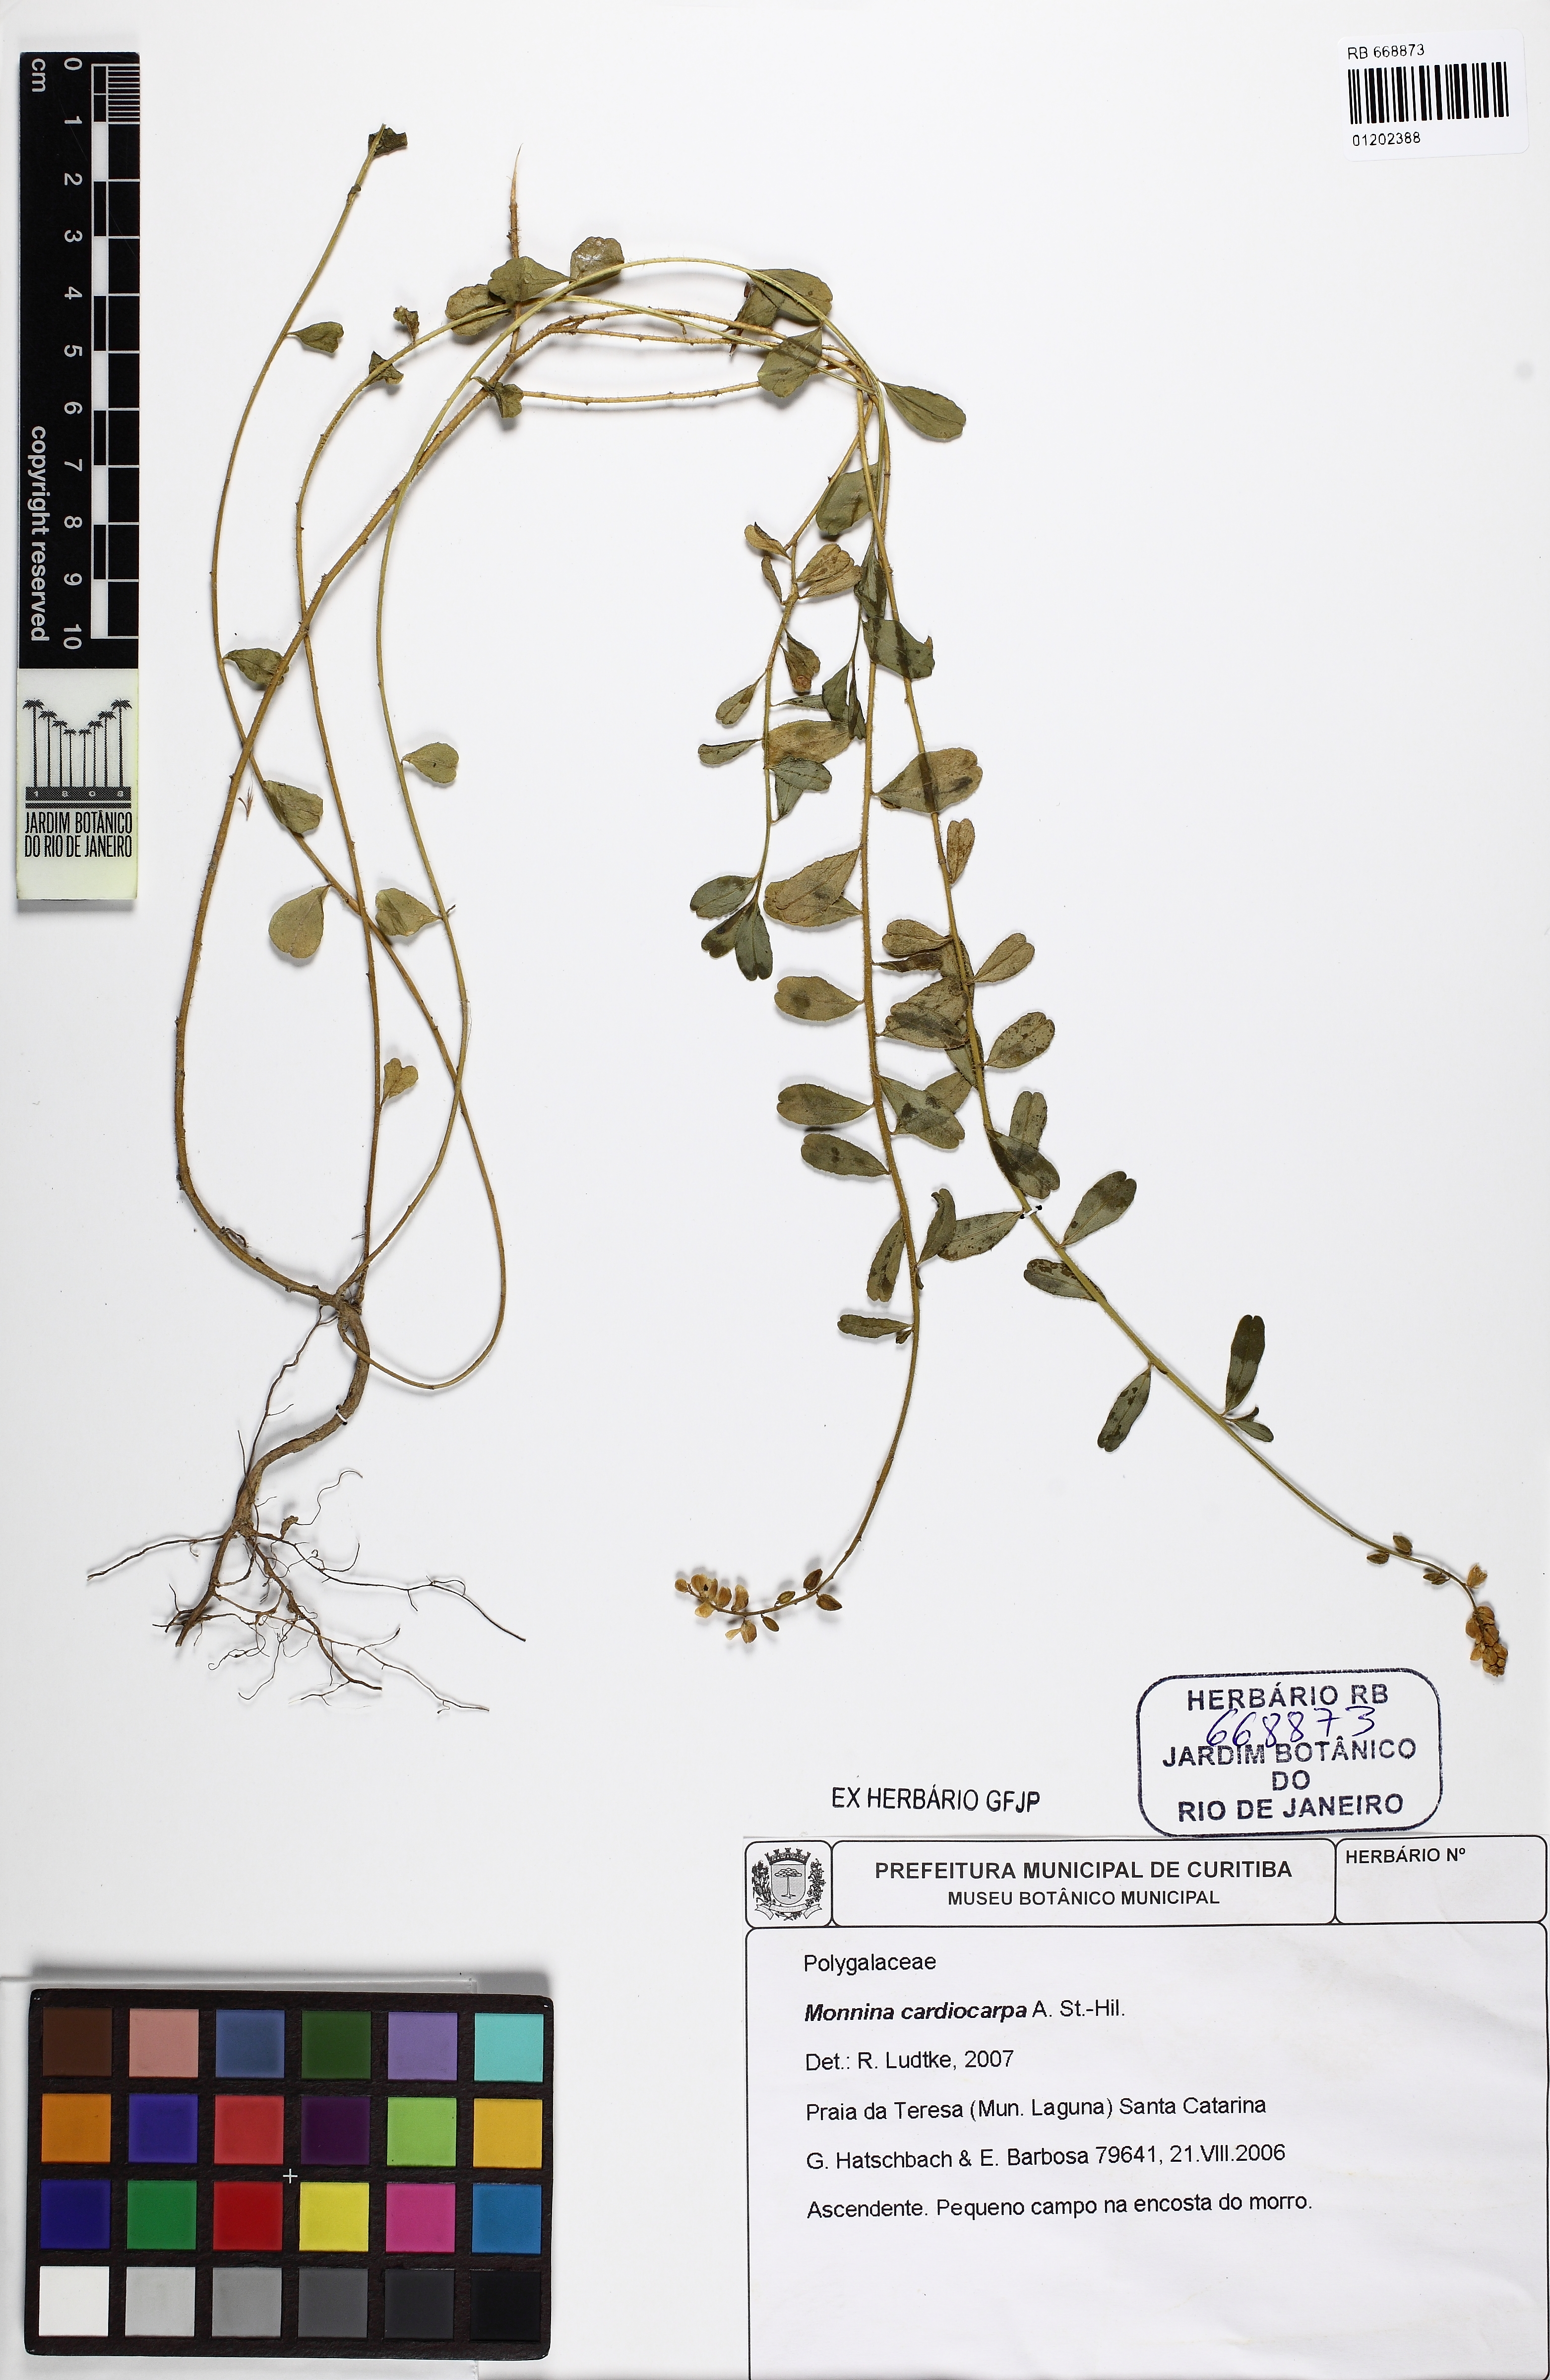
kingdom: Plantae
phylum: Tracheophyta
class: Magnoliopsida
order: Fabales
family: Polygalaceae
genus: Monnina
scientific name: Monnina cardiocarpa
